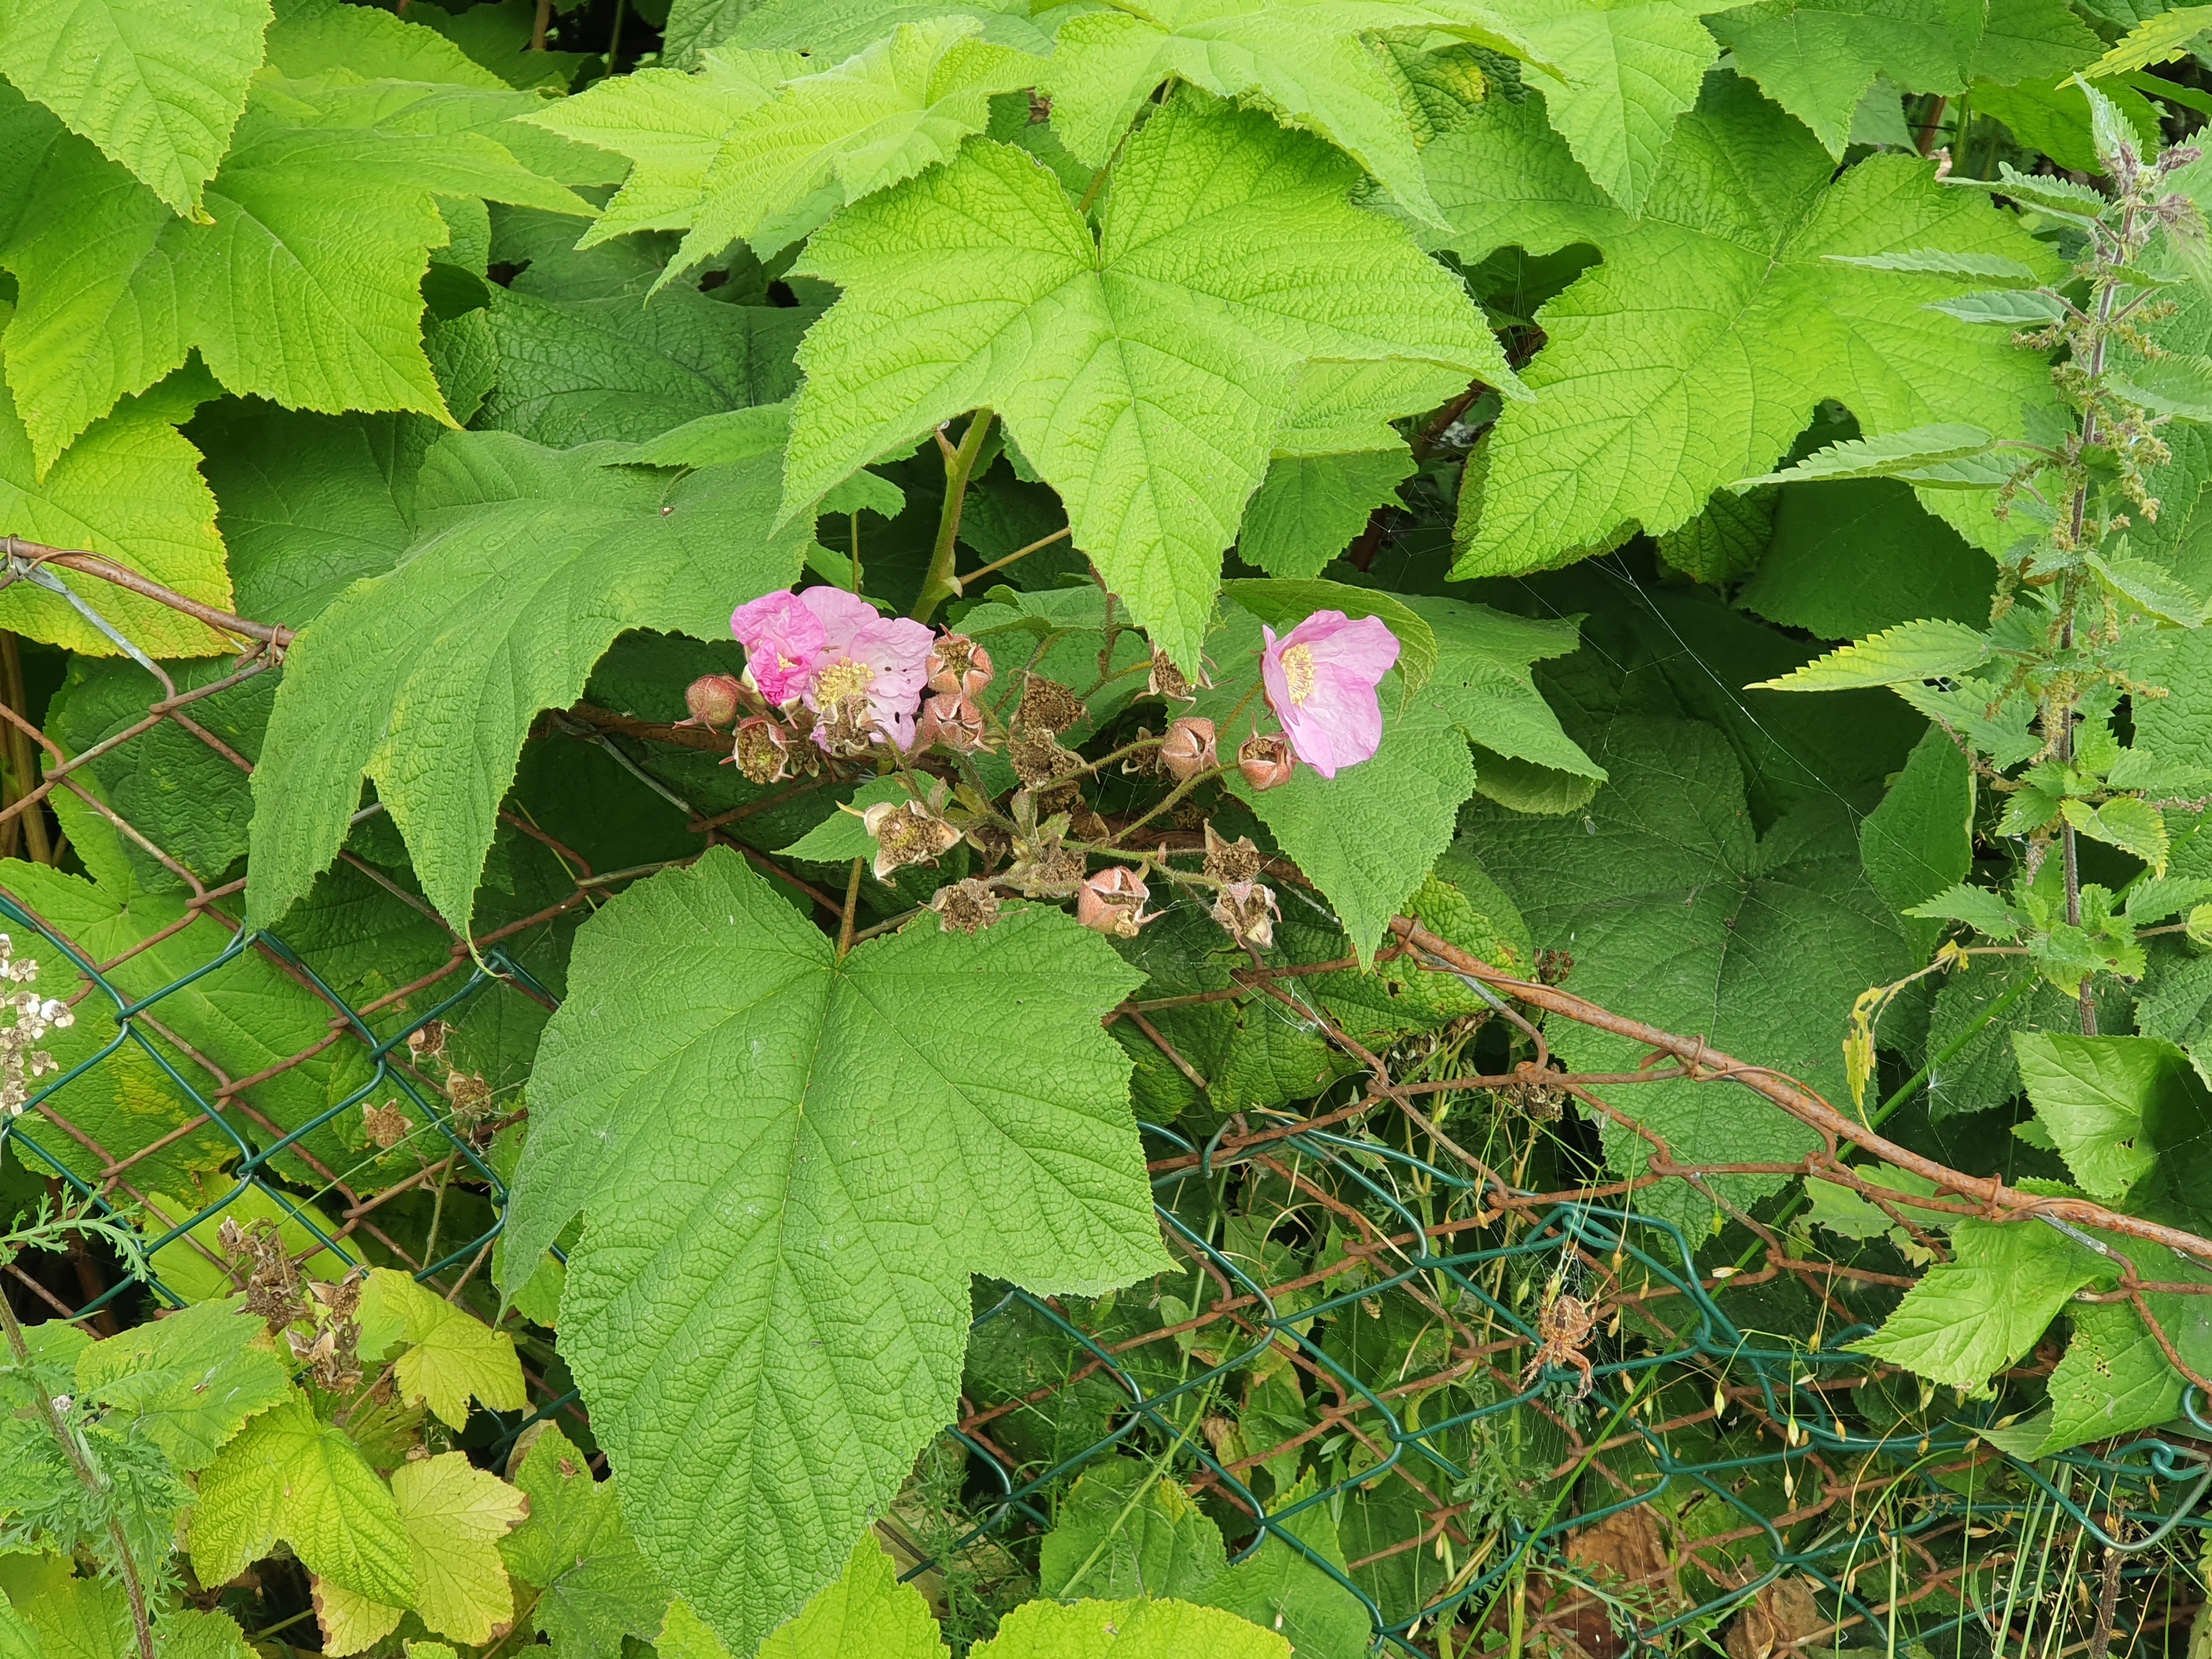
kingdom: Plantae
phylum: Tracheophyta
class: Magnoliopsida
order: Rosales
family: Rosaceae
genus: Rubus
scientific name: Rubus odoratus
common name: Purple-flowered raspberry
